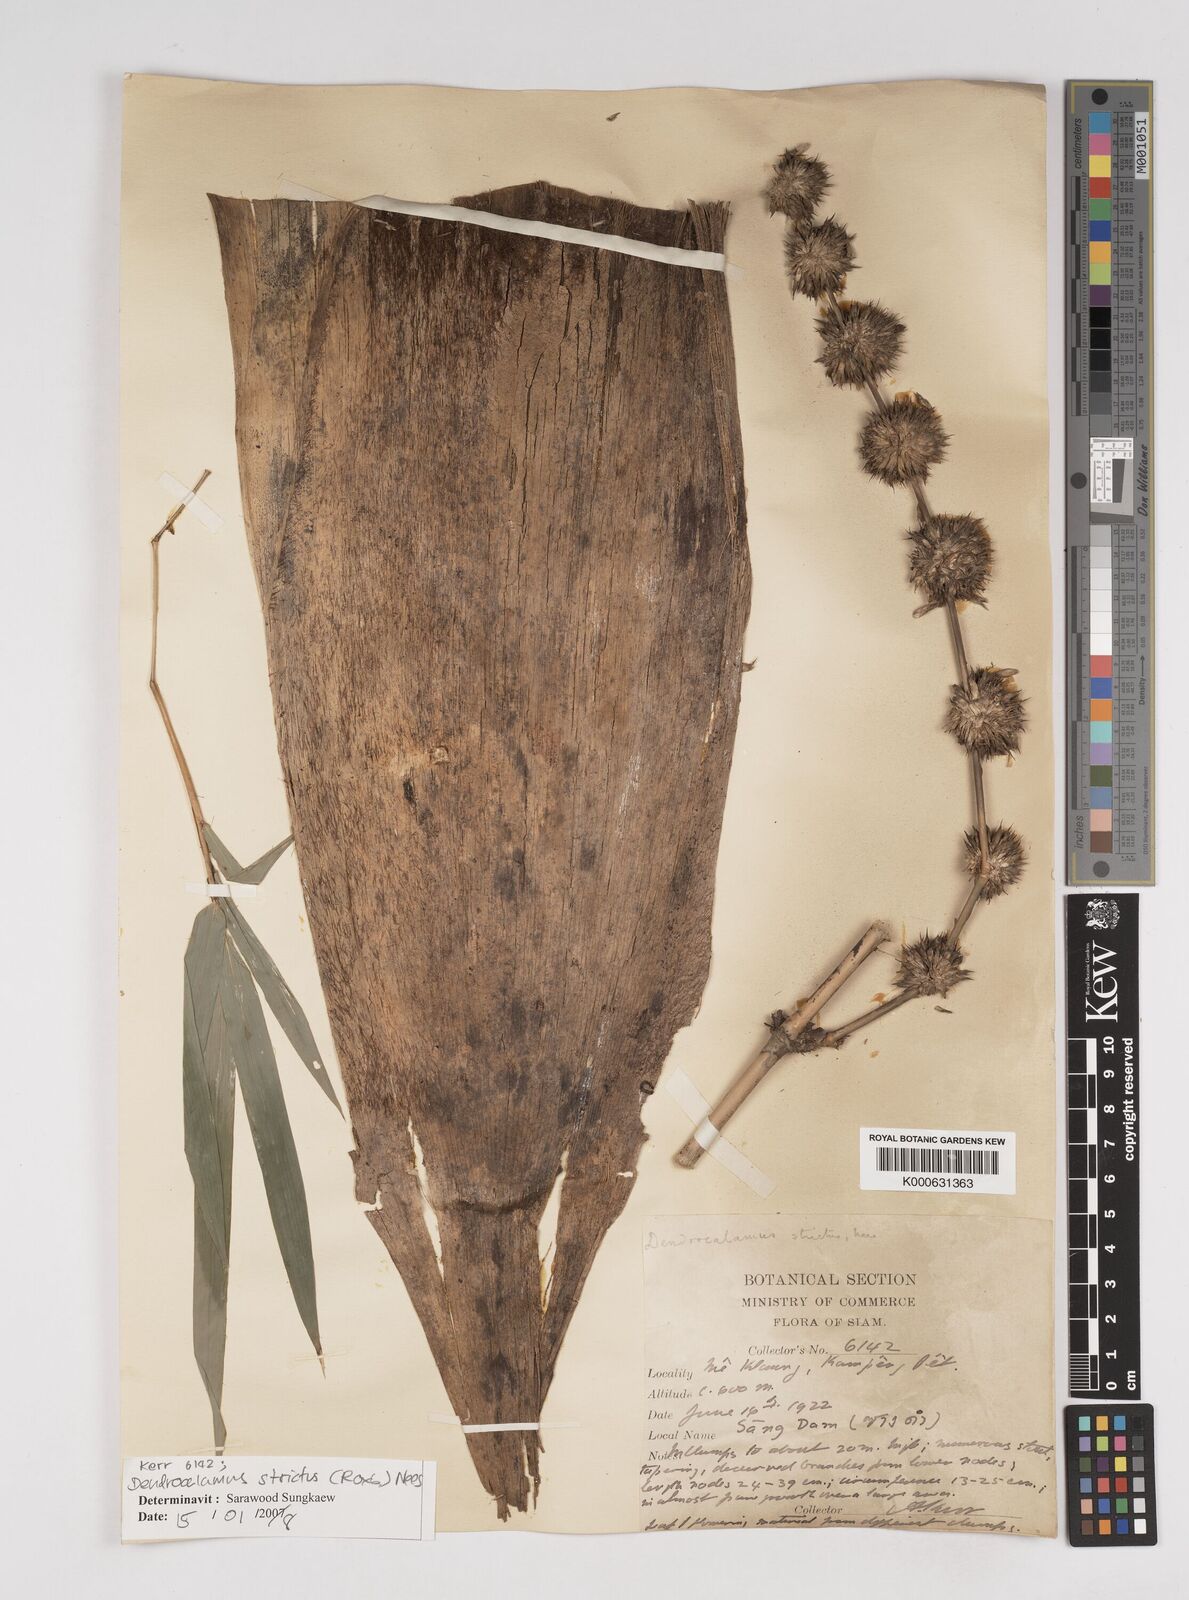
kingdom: Plantae
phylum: Tracheophyta
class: Liliopsida
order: Poales
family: Poaceae
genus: Dendrocalamus
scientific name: Dendrocalamus strictus
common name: Male bamboo
